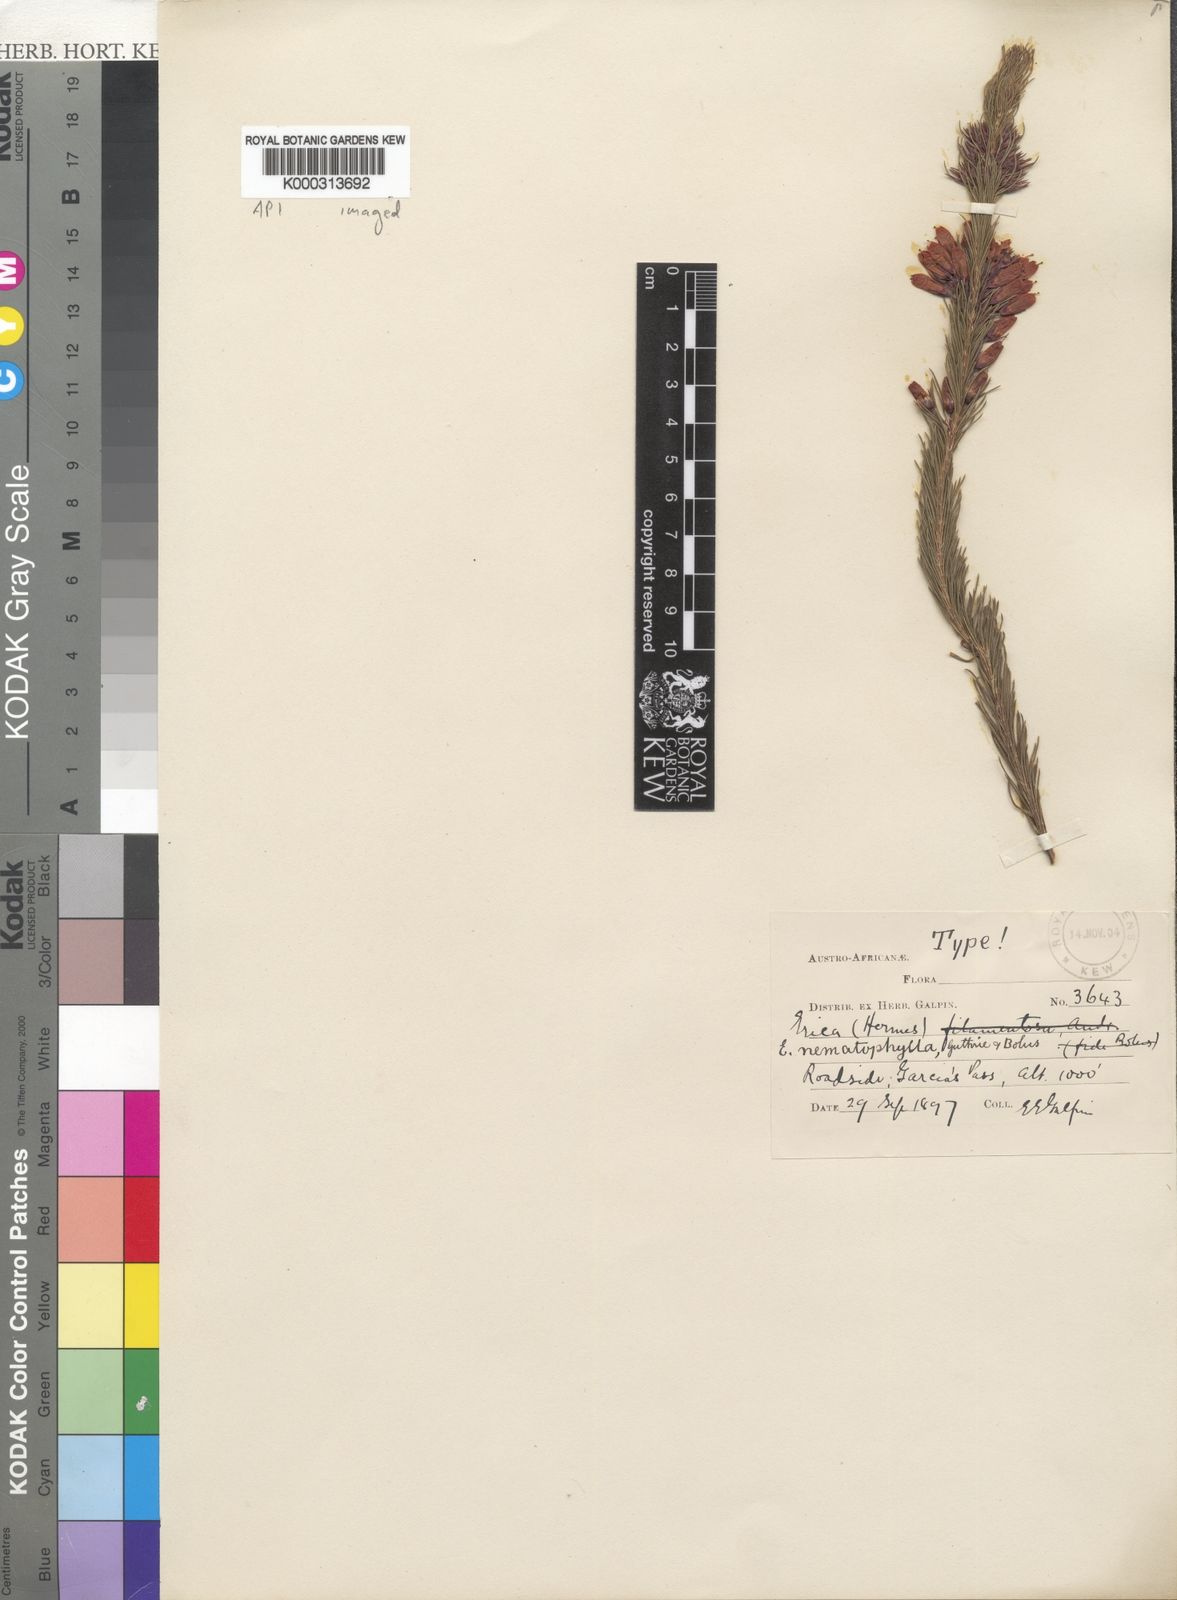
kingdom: Plantae
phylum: Tracheophyta
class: Magnoliopsida
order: Ericales
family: Ericaceae
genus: Erica
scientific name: Erica nematophylla
